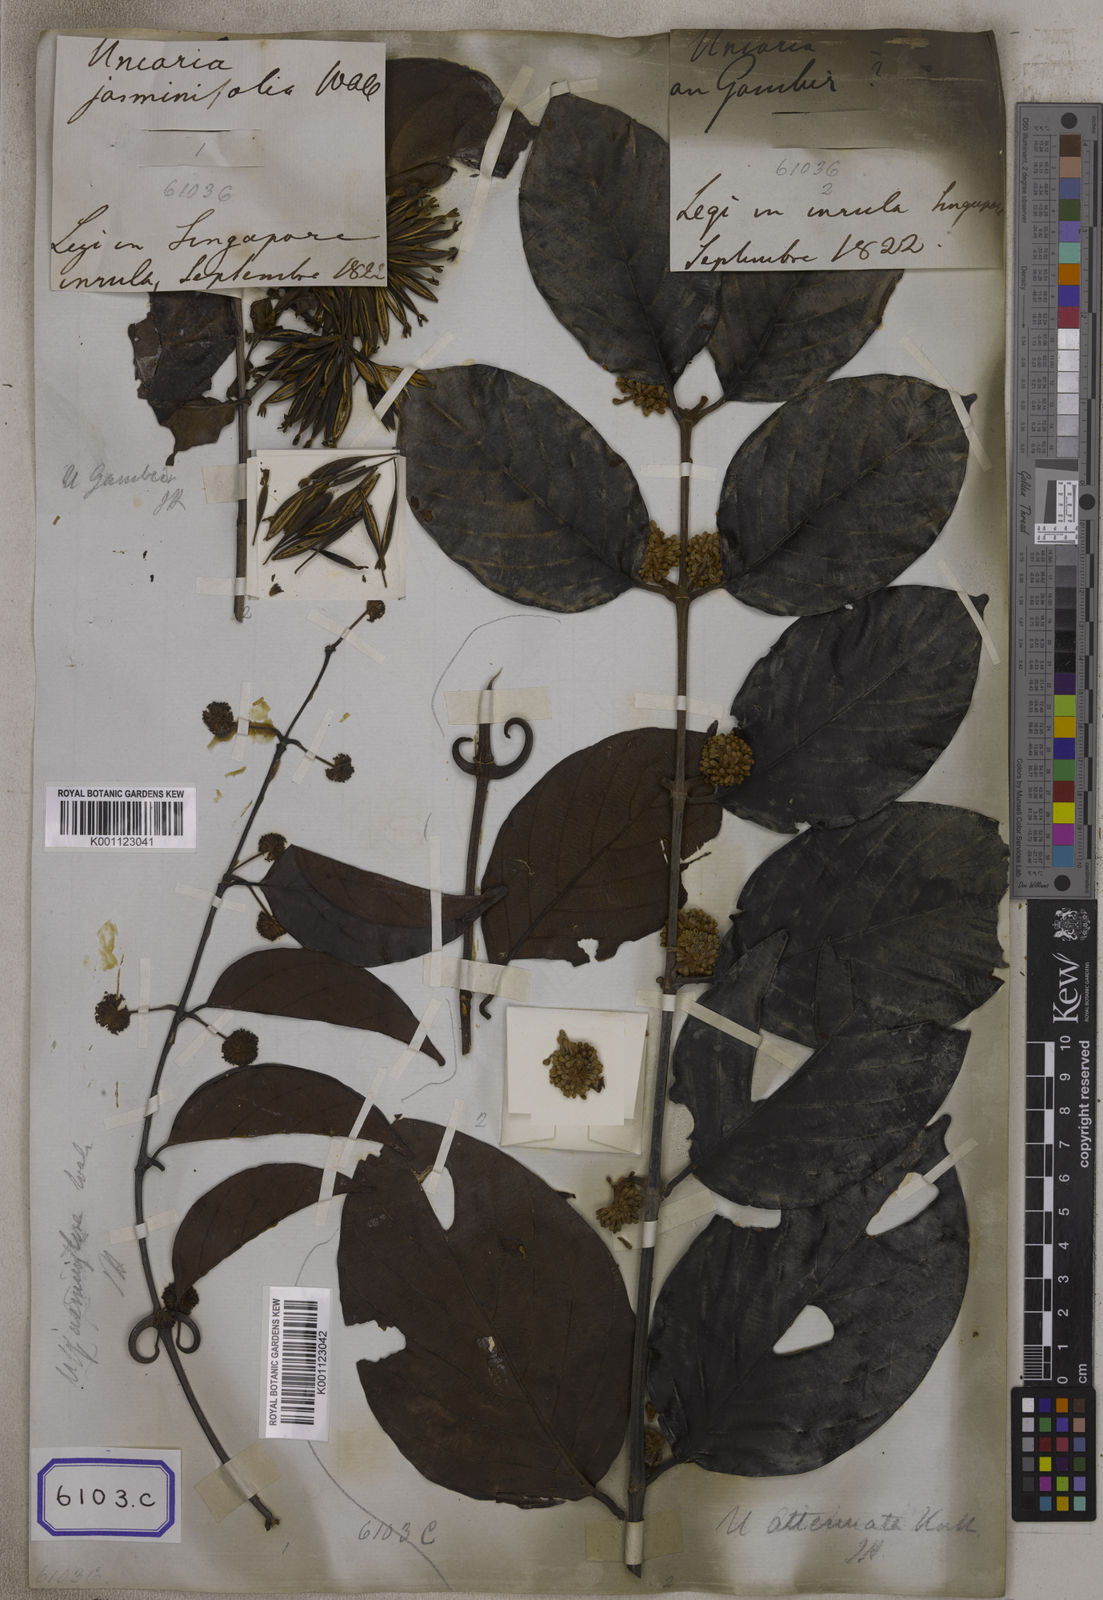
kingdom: Plantae
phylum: Tracheophyta
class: Magnoliopsida
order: Gentianales
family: Rubiaceae
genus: Uncaria
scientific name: Uncaria gambir
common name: Pale catechu
